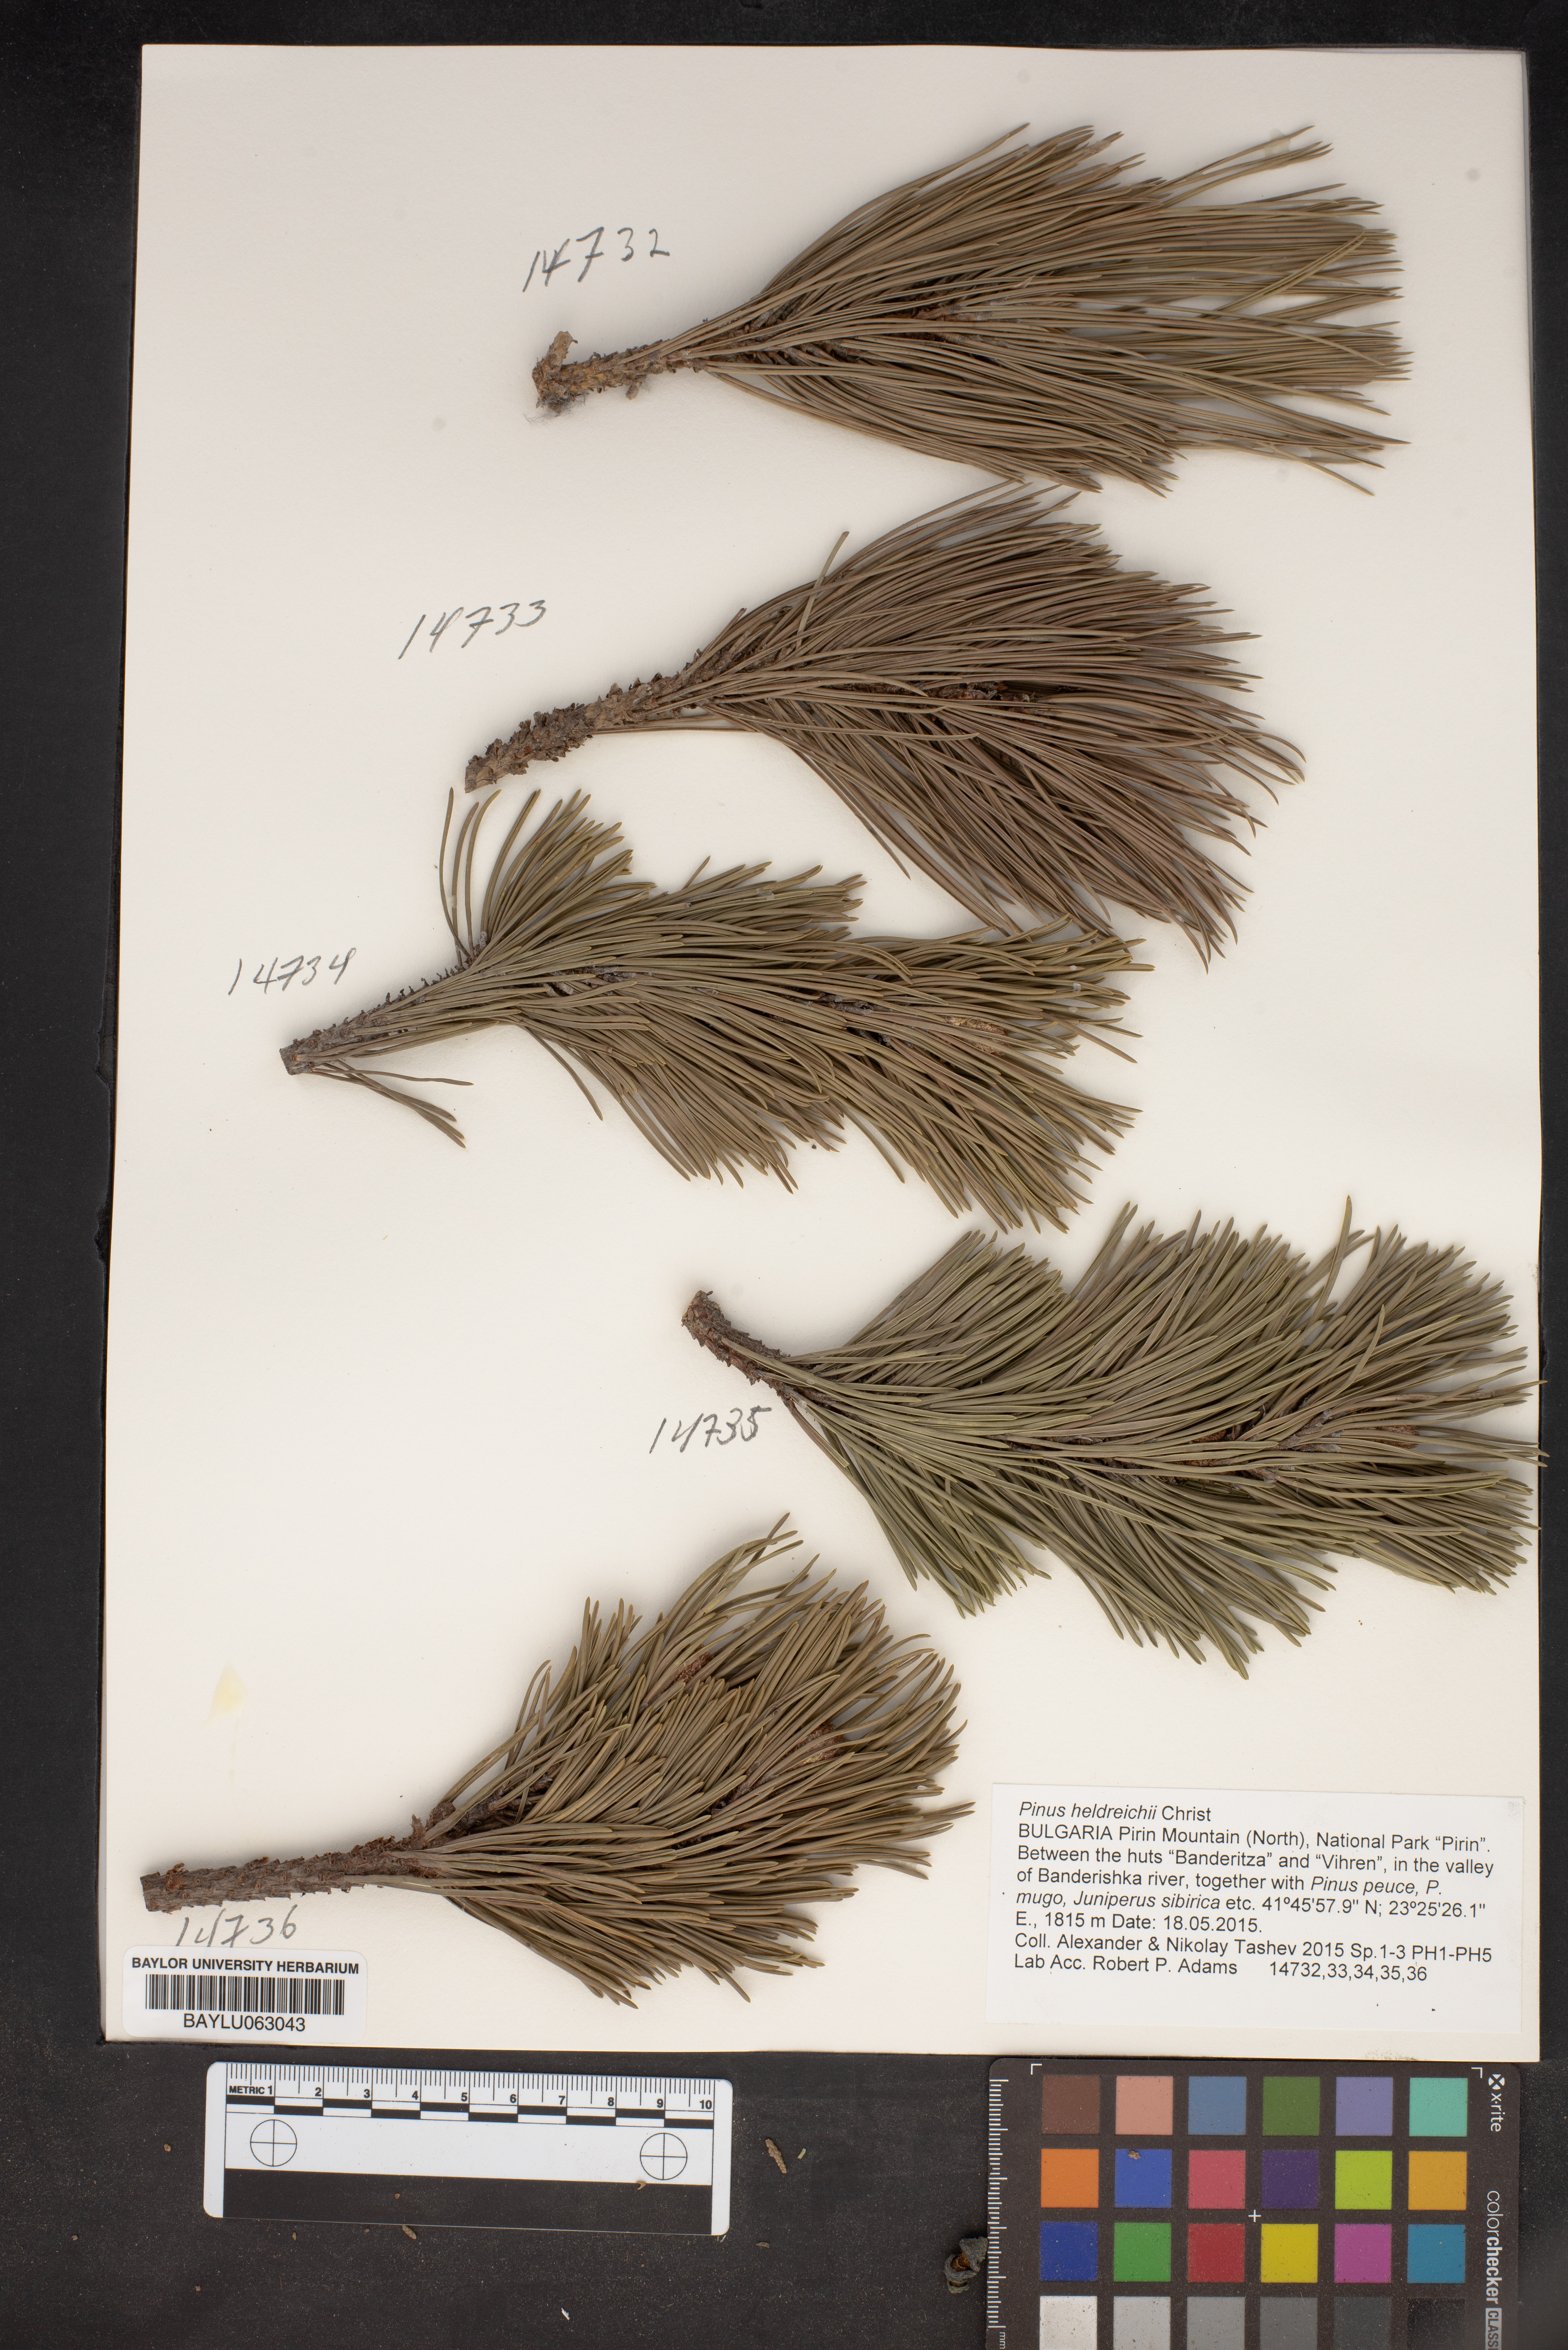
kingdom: Plantae
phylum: Tracheophyta
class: Pinopsida
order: Pinales
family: Pinaceae
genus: Pinus
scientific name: Pinus heldreichii
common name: Bosnian pine
